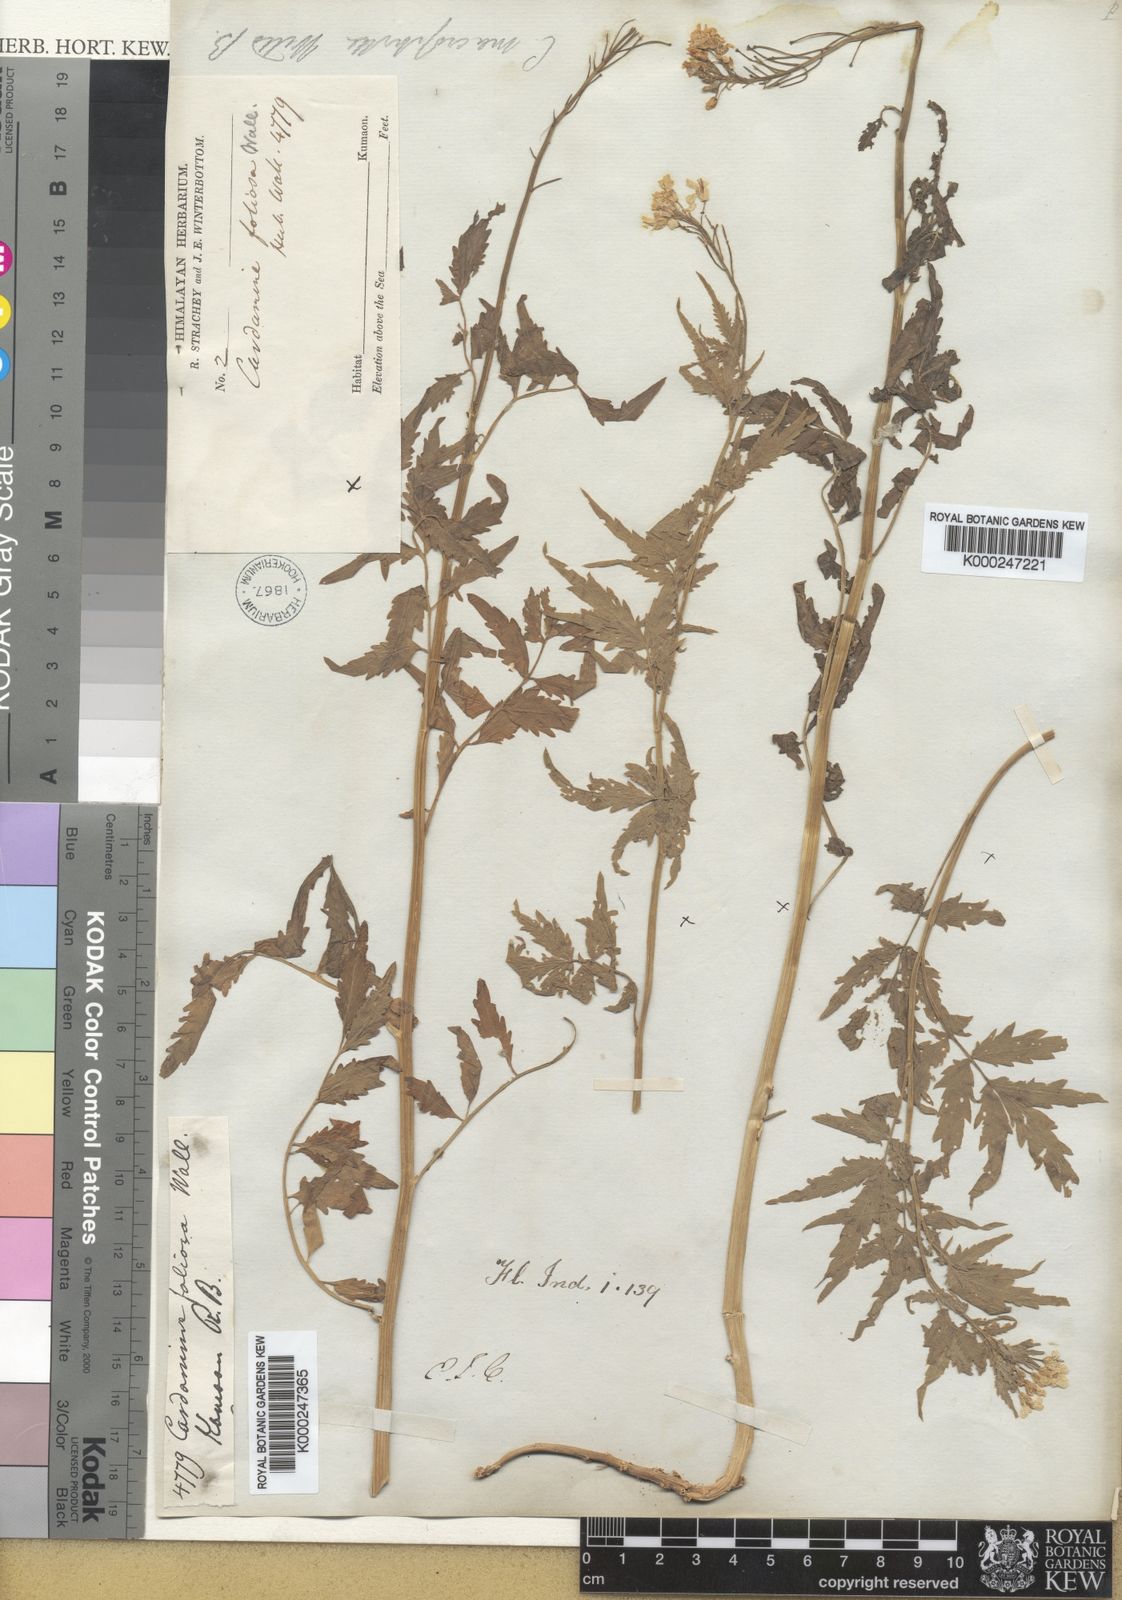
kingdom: Plantae
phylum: Tracheophyta
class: Magnoliopsida
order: Brassicales
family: Brassicaceae
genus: Cardamine
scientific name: Cardamine macrophylla
